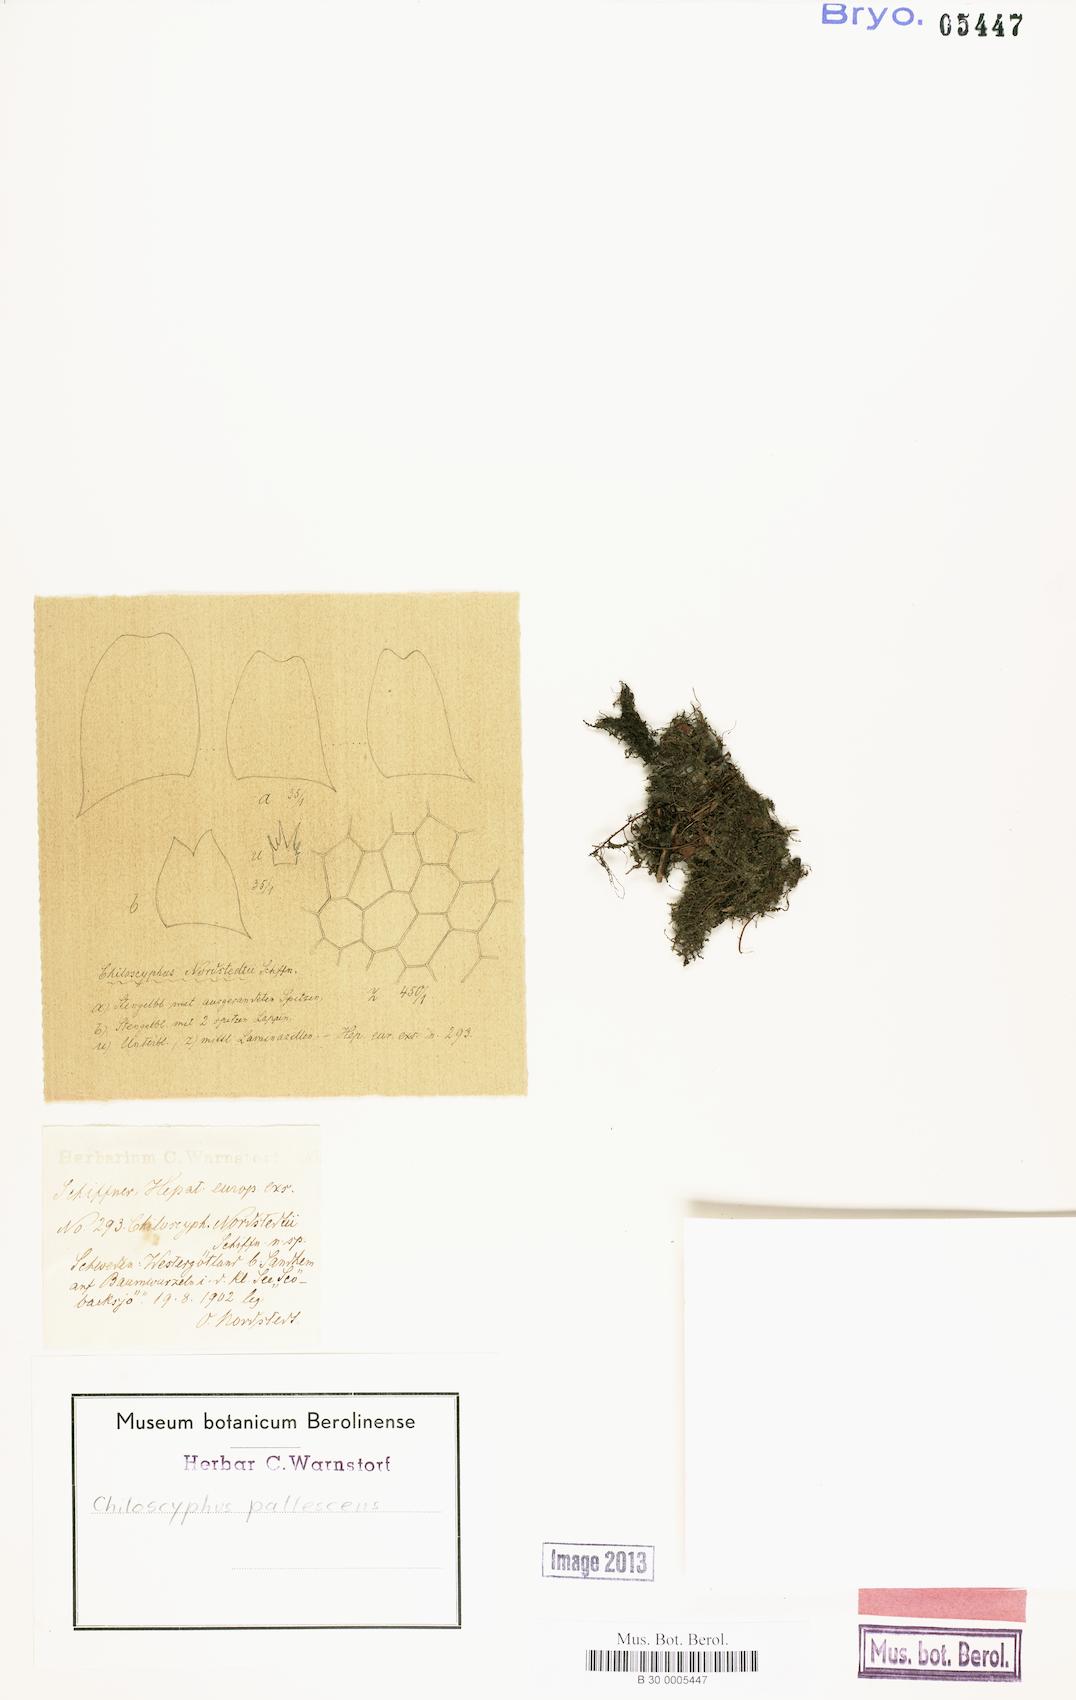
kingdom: Plantae
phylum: Marchantiophyta
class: Jungermanniopsida
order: Jungermanniales
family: Lophocoleaceae
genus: Chiloscyphus
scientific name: Chiloscyphus pallescens
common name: St winifrid's other moss
